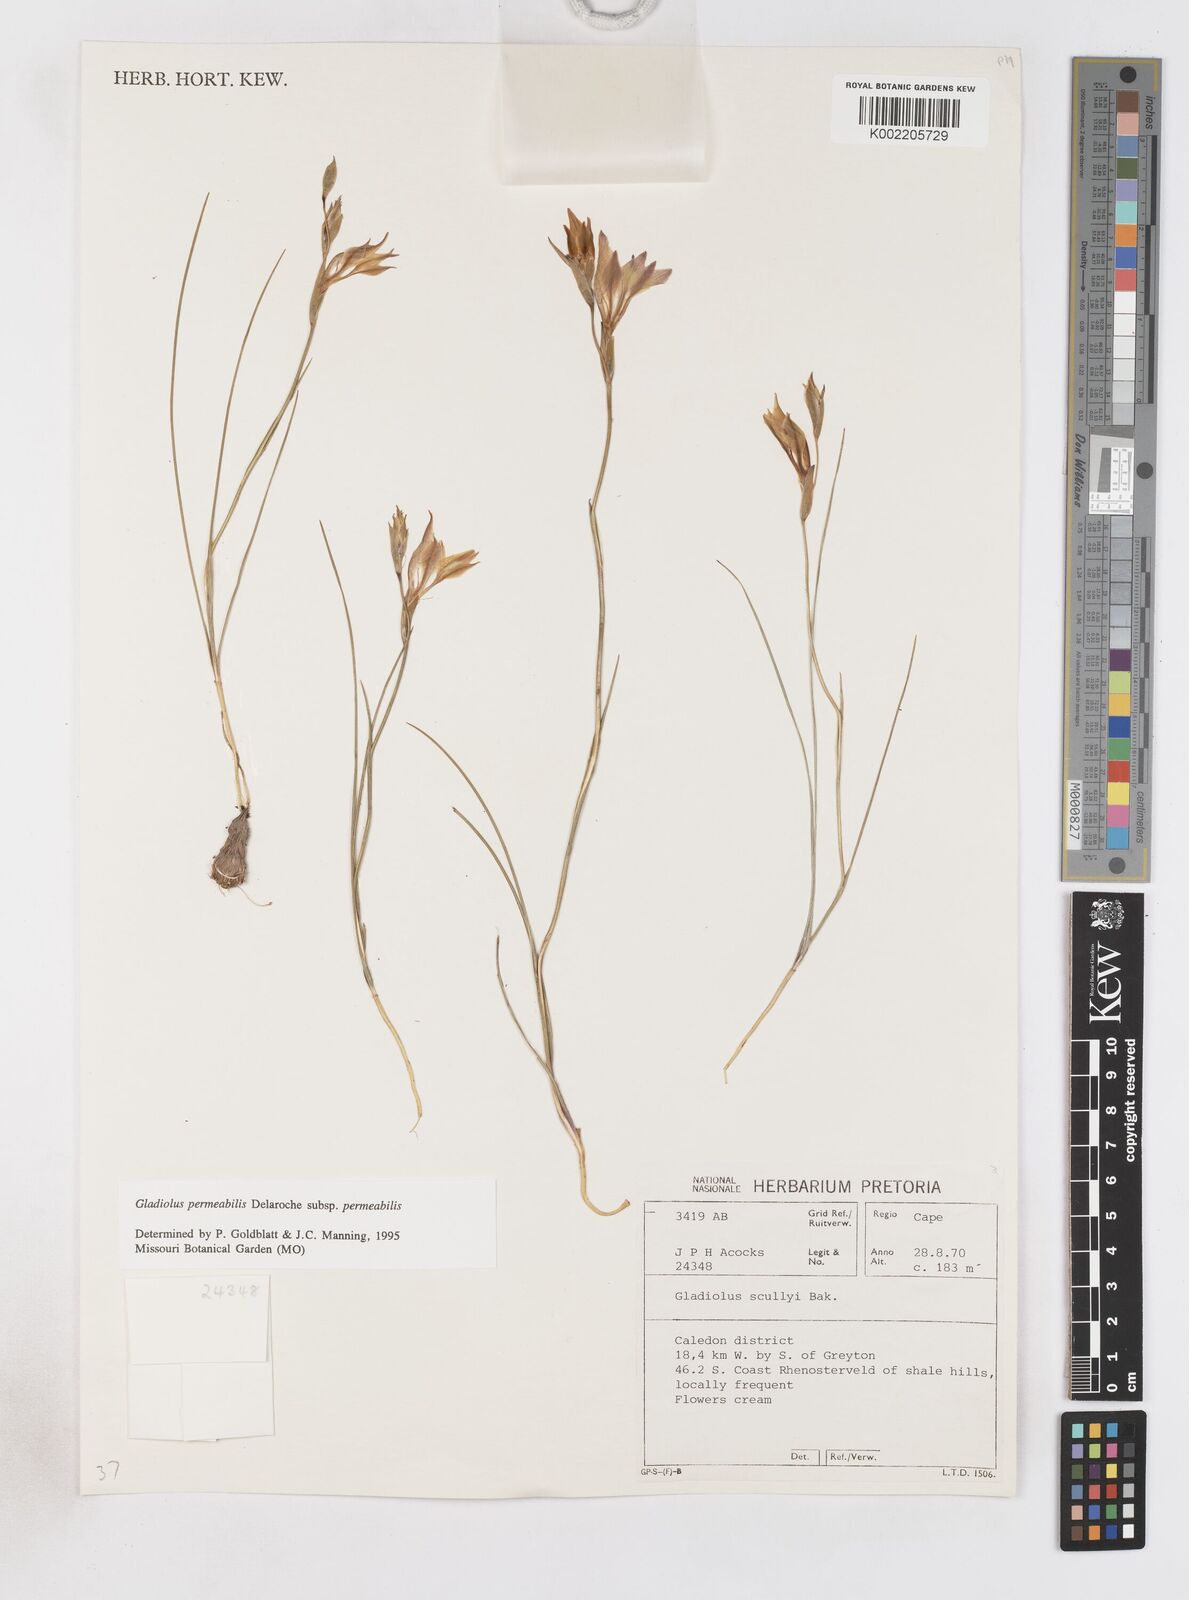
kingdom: Plantae
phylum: Tracheophyta
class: Liliopsida
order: Asparagales
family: Iridaceae
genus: Gladiolus
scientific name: Gladiolus permeabilis
